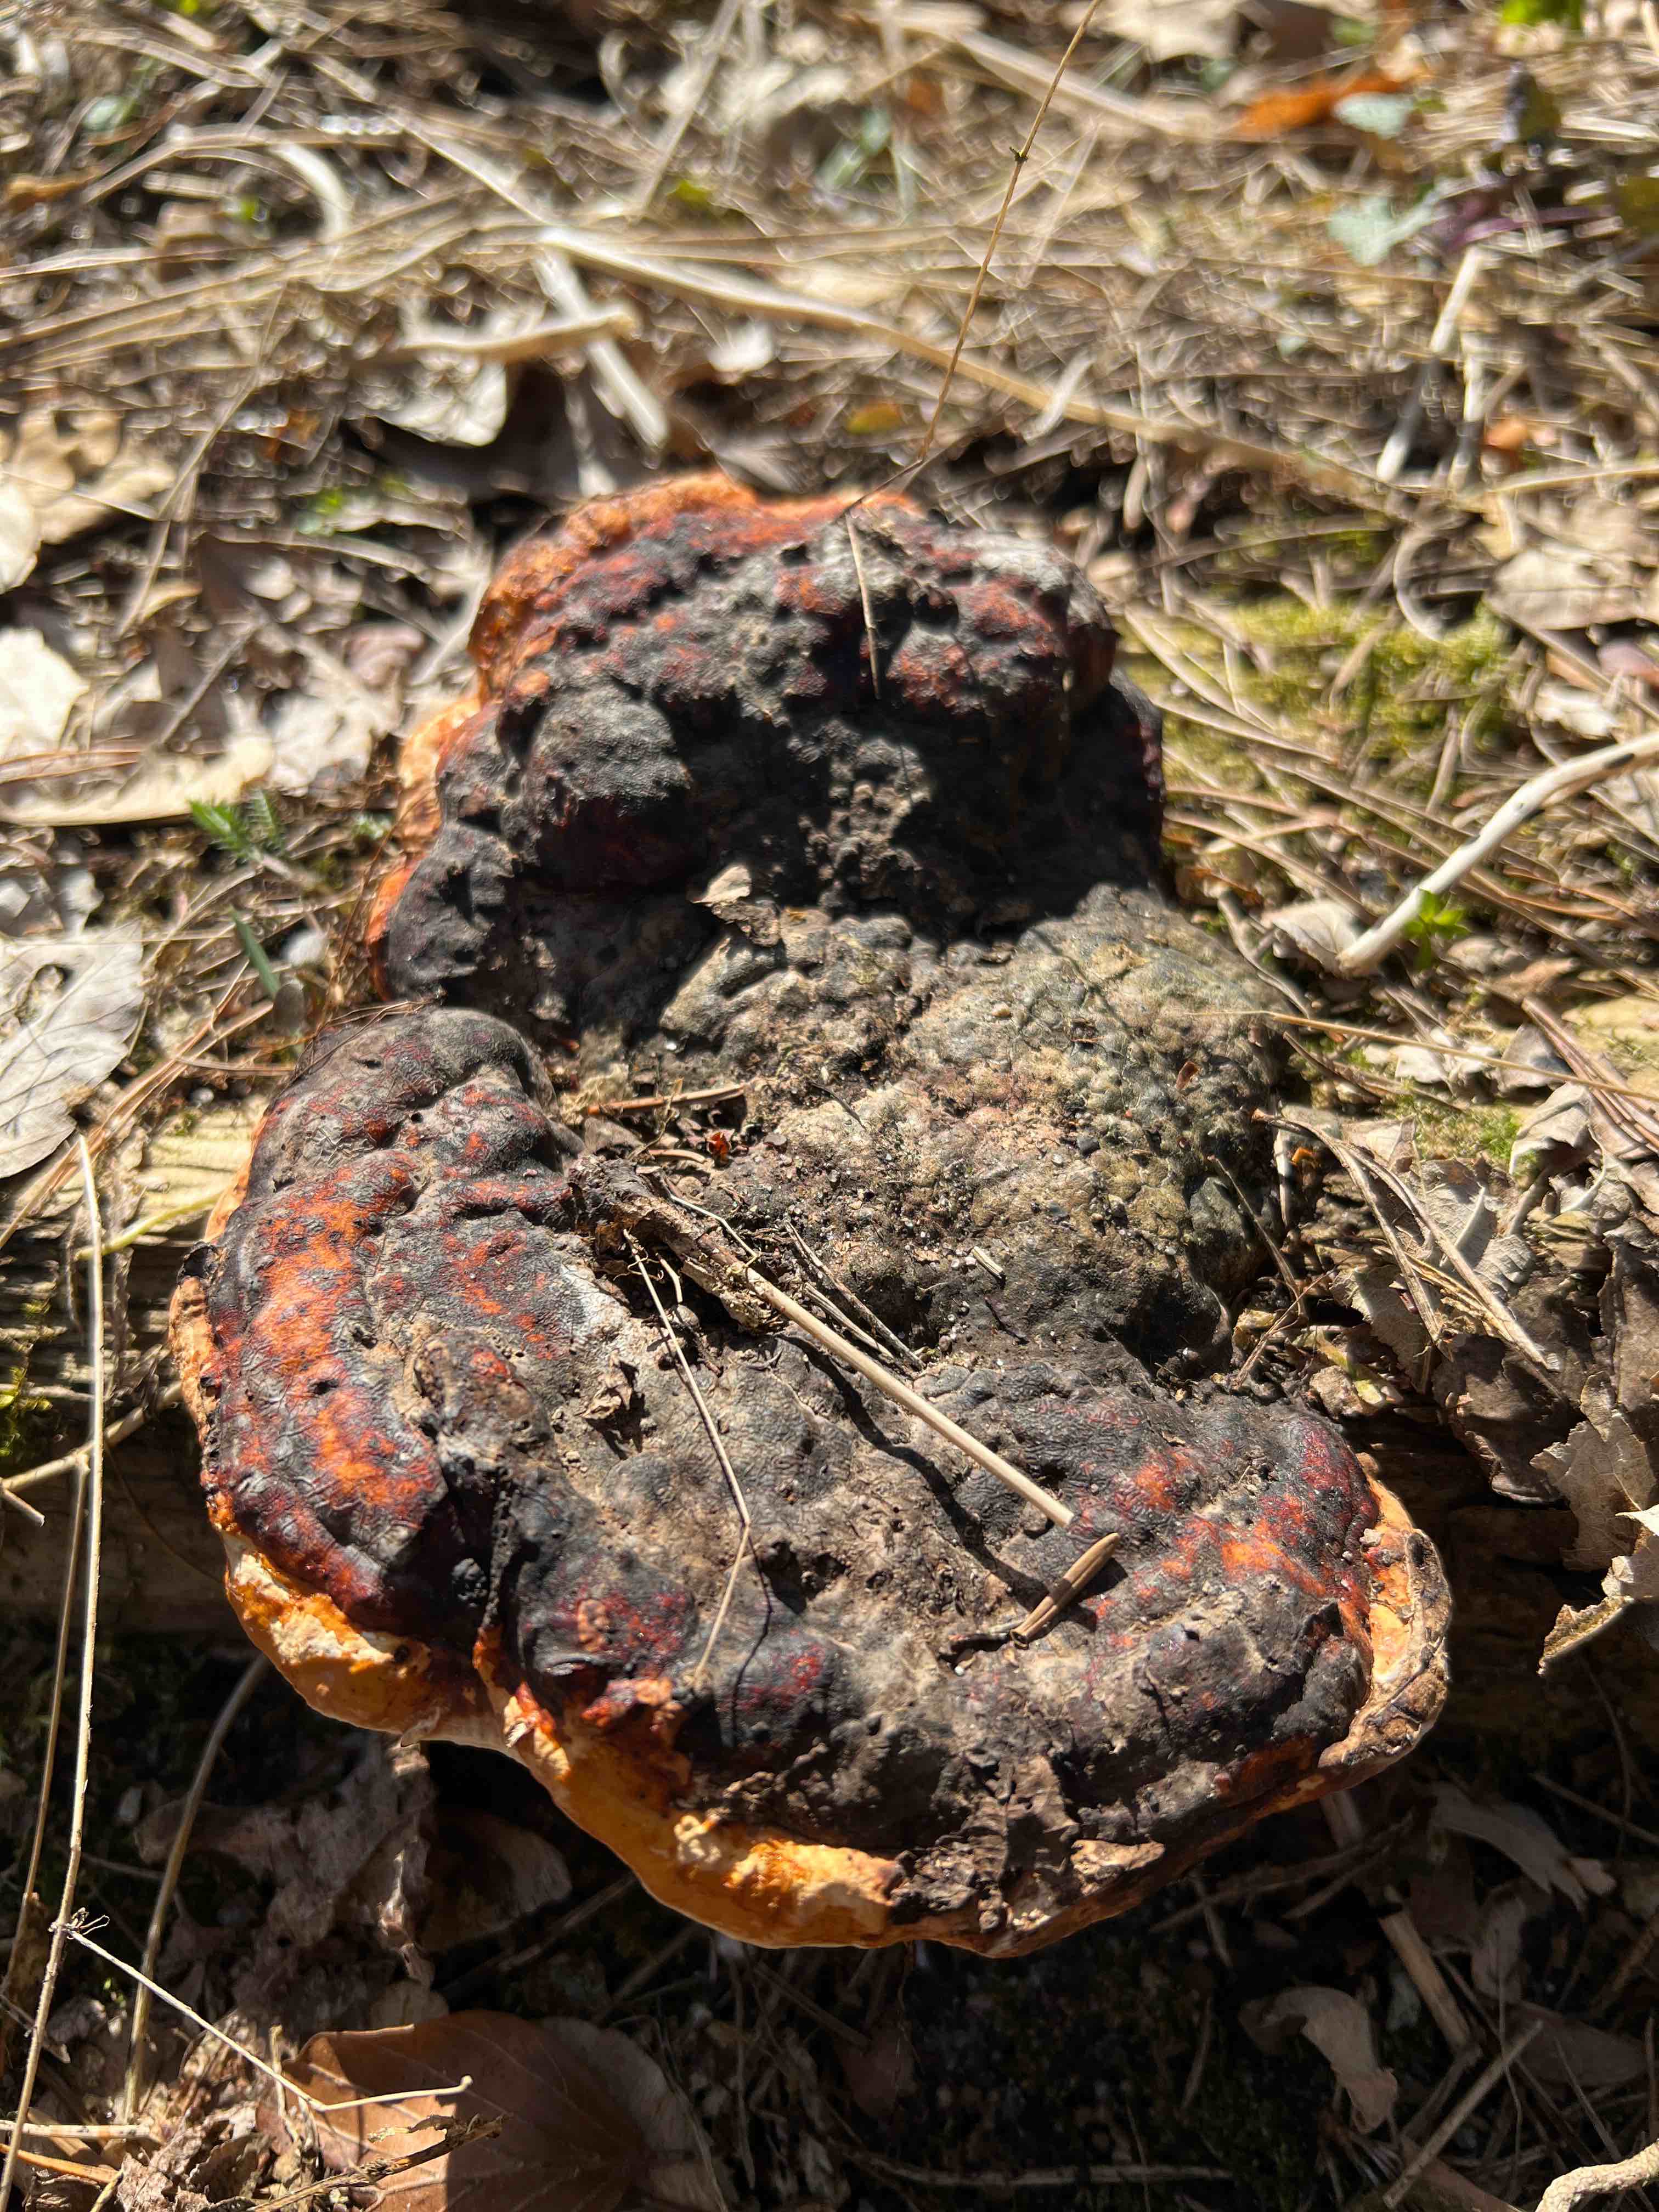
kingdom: Fungi
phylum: Basidiomycota
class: Agaricomycetes
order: Polyporales
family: Fomitopsidaceae
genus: Fomitopsis
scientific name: Fomitopsis pinicola
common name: randbæltet hovporesvamp
